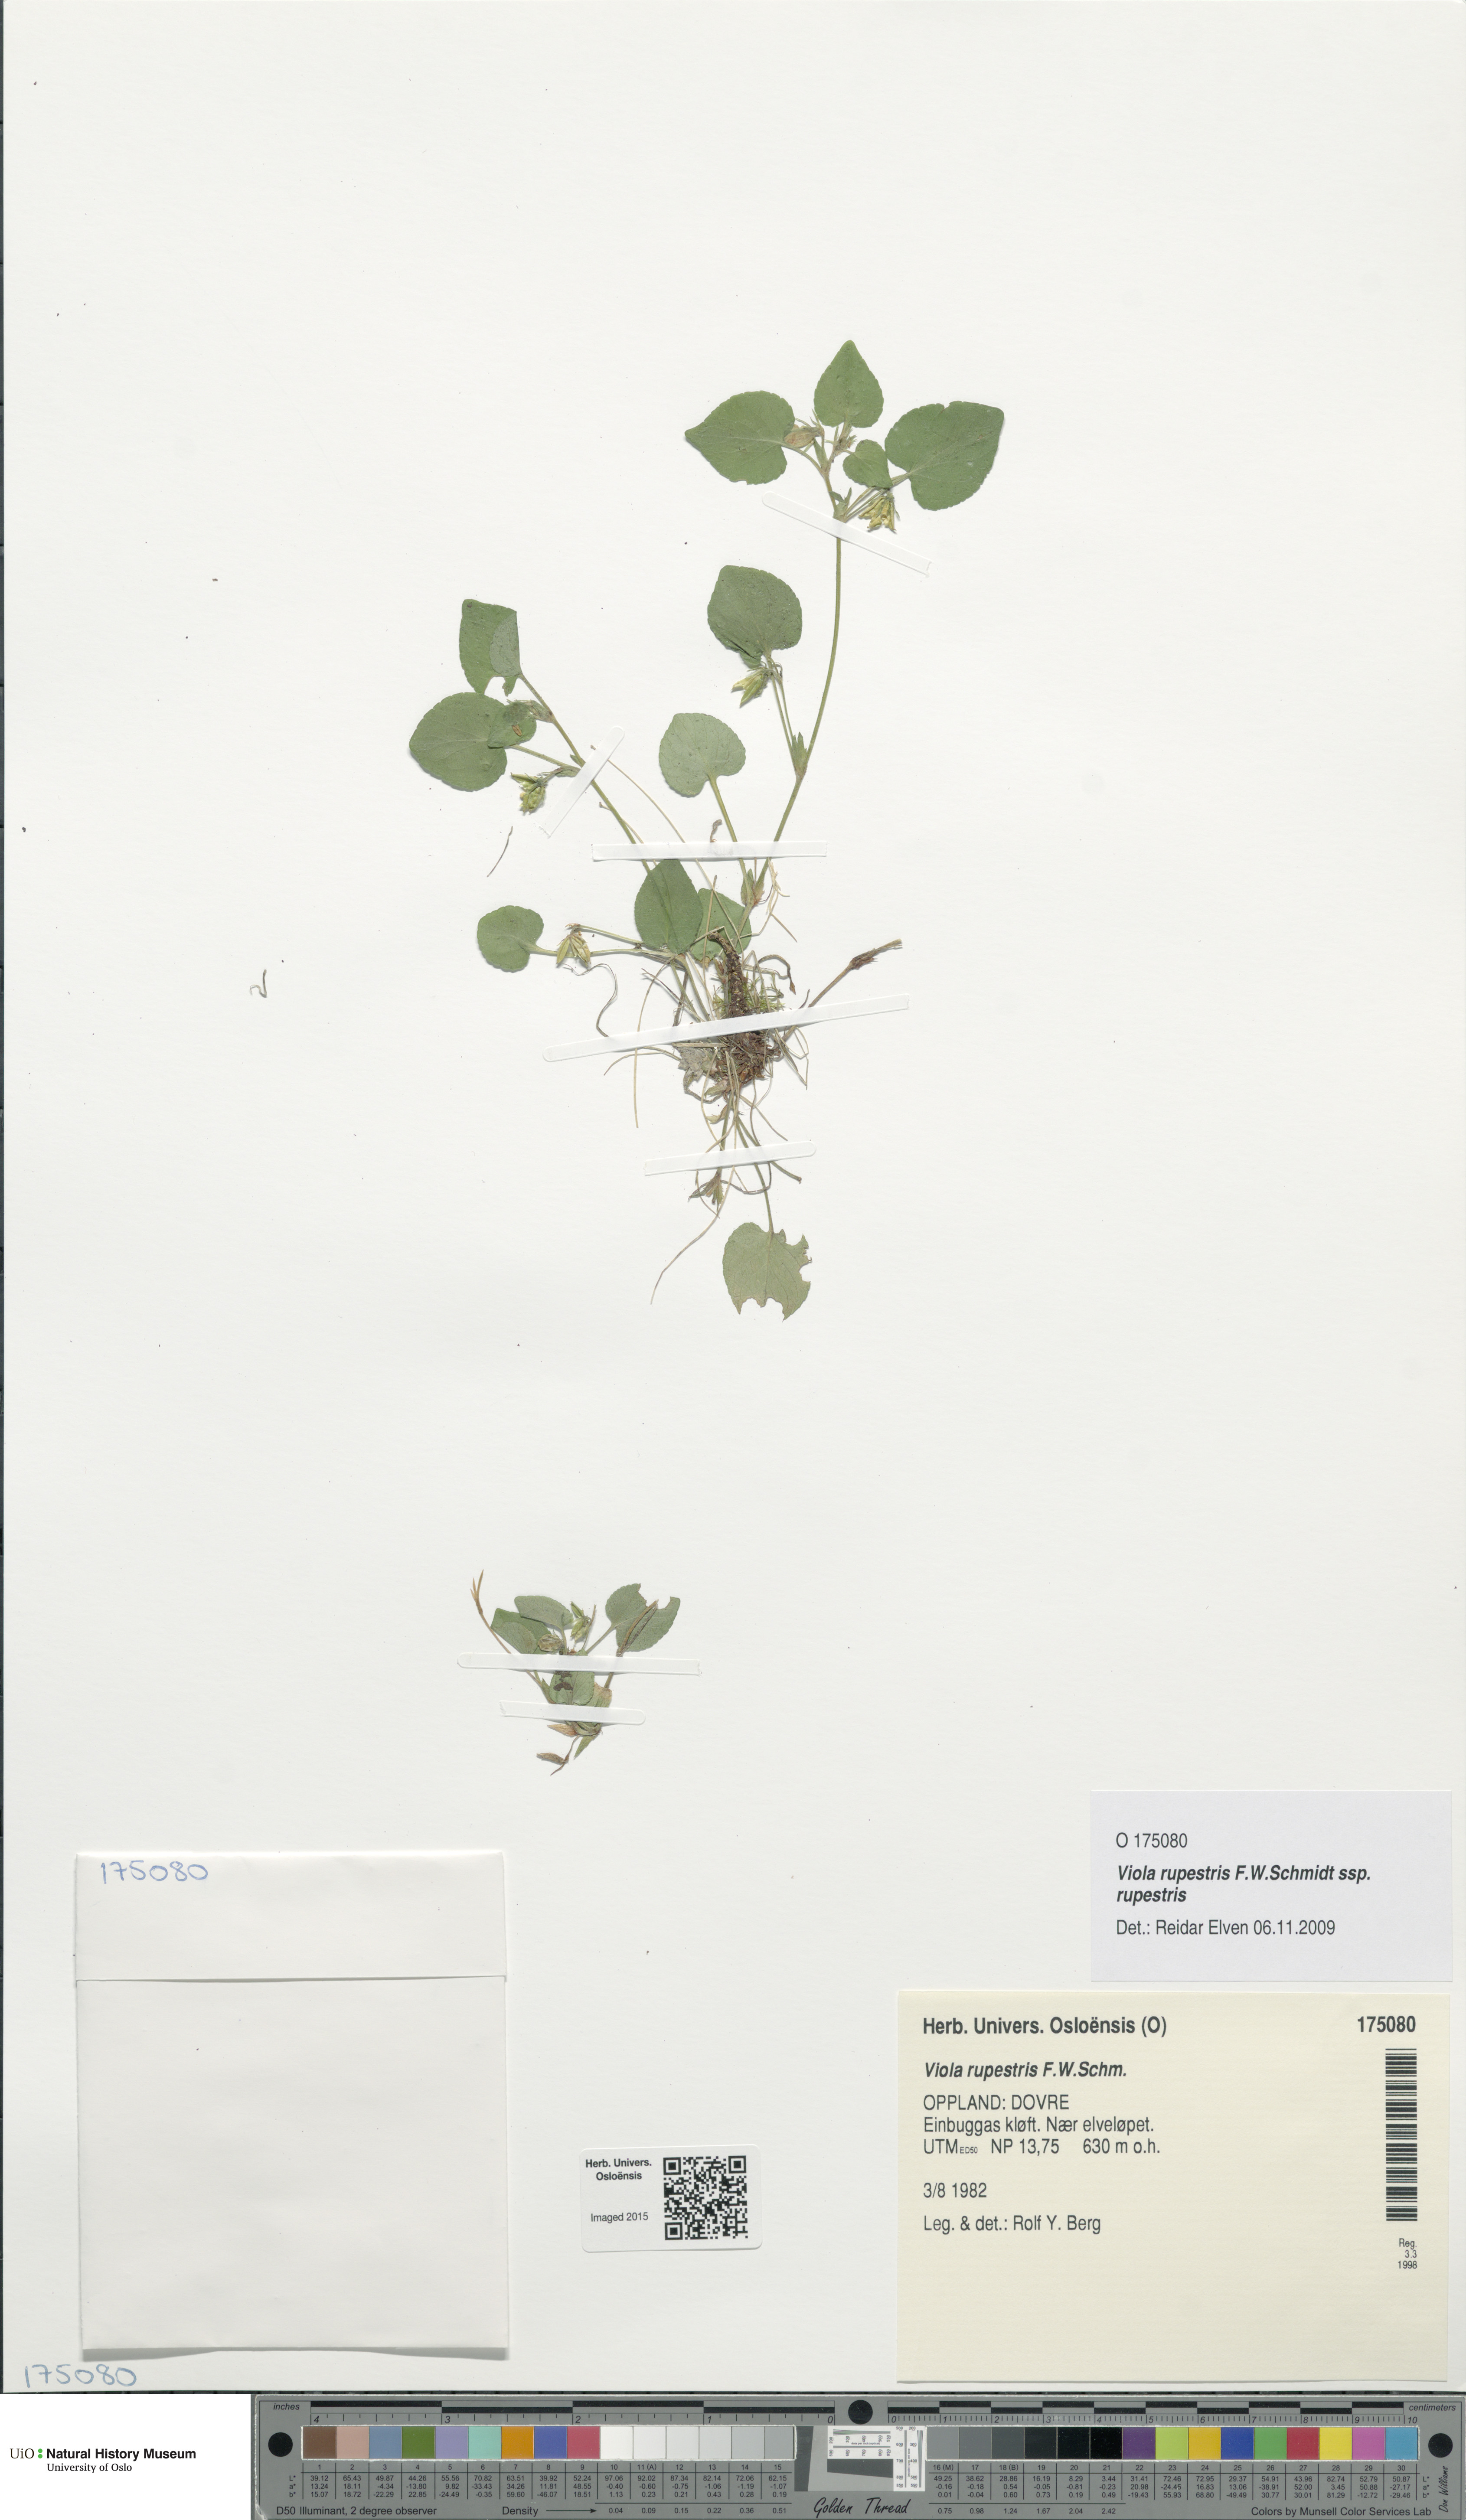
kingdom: Plantae
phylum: Tracheophyta
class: Magnoliopsida
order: Malpighiales
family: Violaceae
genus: Viola
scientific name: Viola rupestris
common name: Teesdale violet
